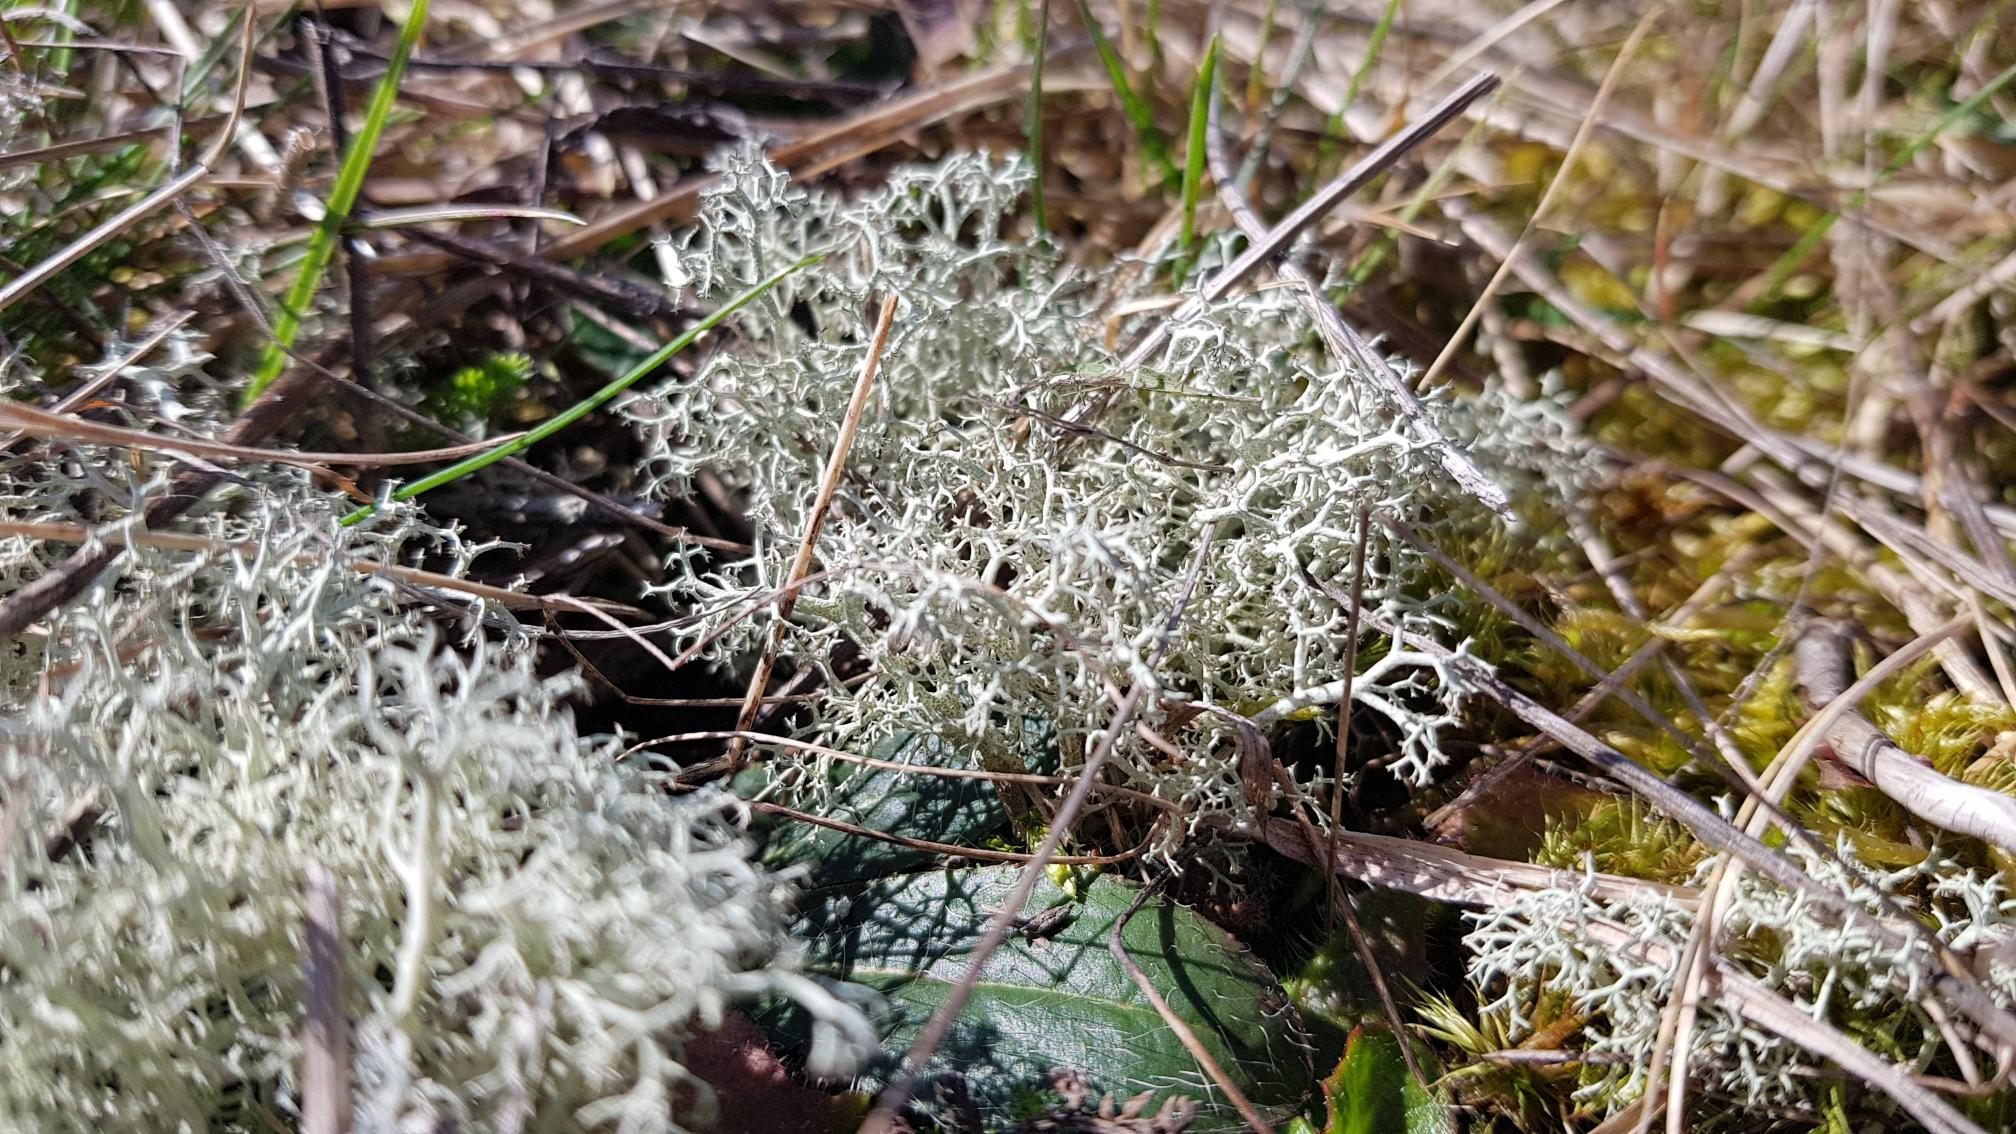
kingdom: Fungi
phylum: Ascomycota
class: Lecanoromycetes
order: Lecanorales
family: Cladoniaceae
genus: Cladonia
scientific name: Cladonia portentosa
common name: Hede-rensdyrlav
